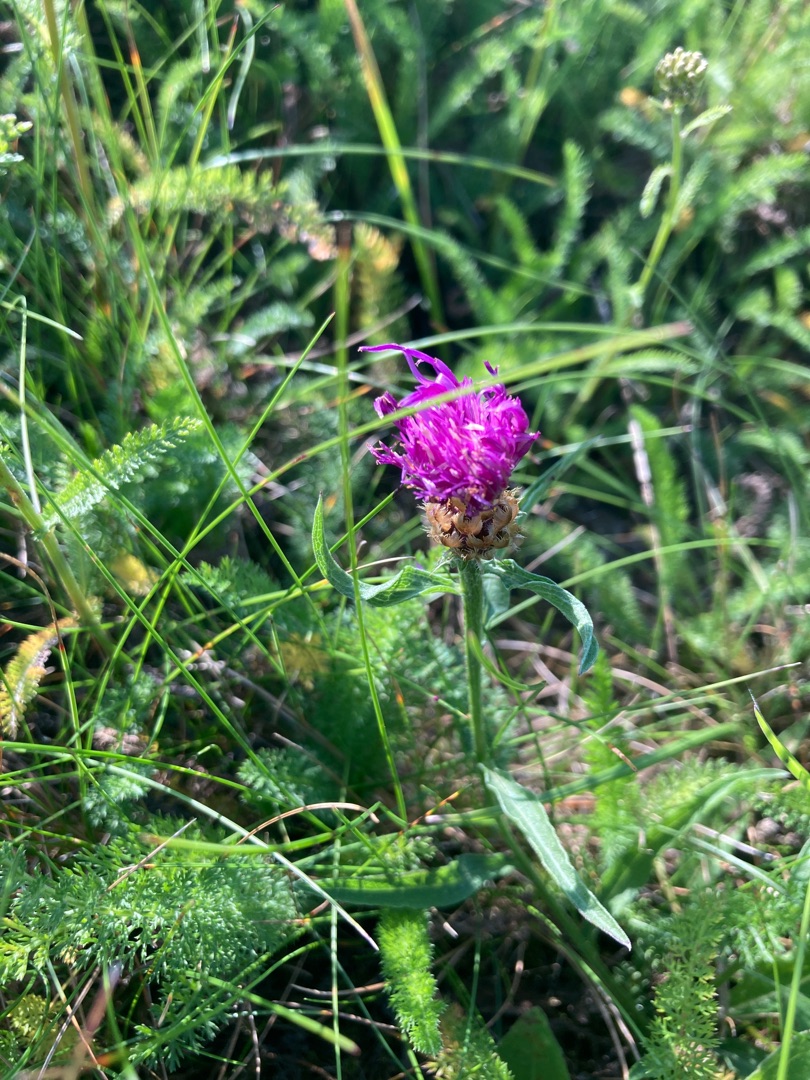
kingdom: Plantae
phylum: Tracheophyta
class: Magnoliopsida
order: Asterales
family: Asteraceae
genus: Centaurea
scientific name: Centaurea jacea
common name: Almindelig knopurt
